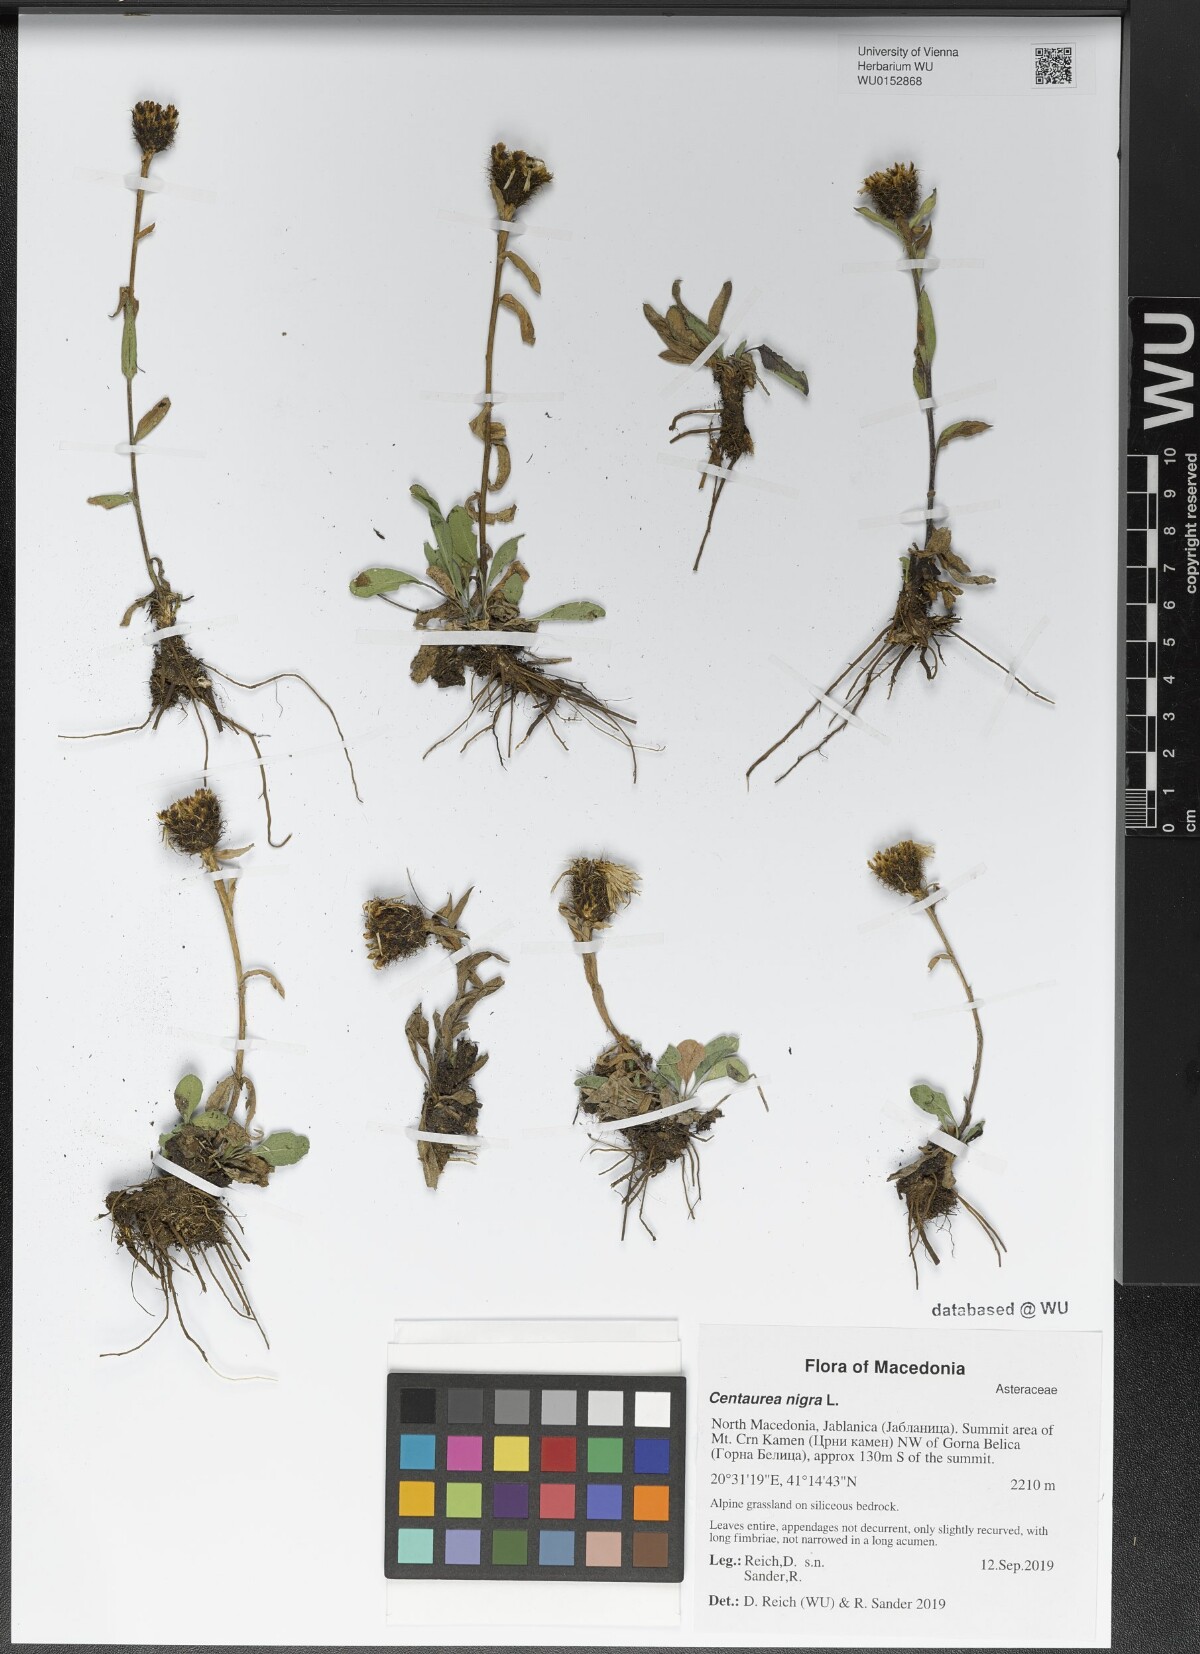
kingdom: Plantae
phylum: Tracheophyta
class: Magnoliopsida
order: Asterales
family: Asteraceae
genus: Centaurea
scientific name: Centaurea nigra
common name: Lesser knapweed
